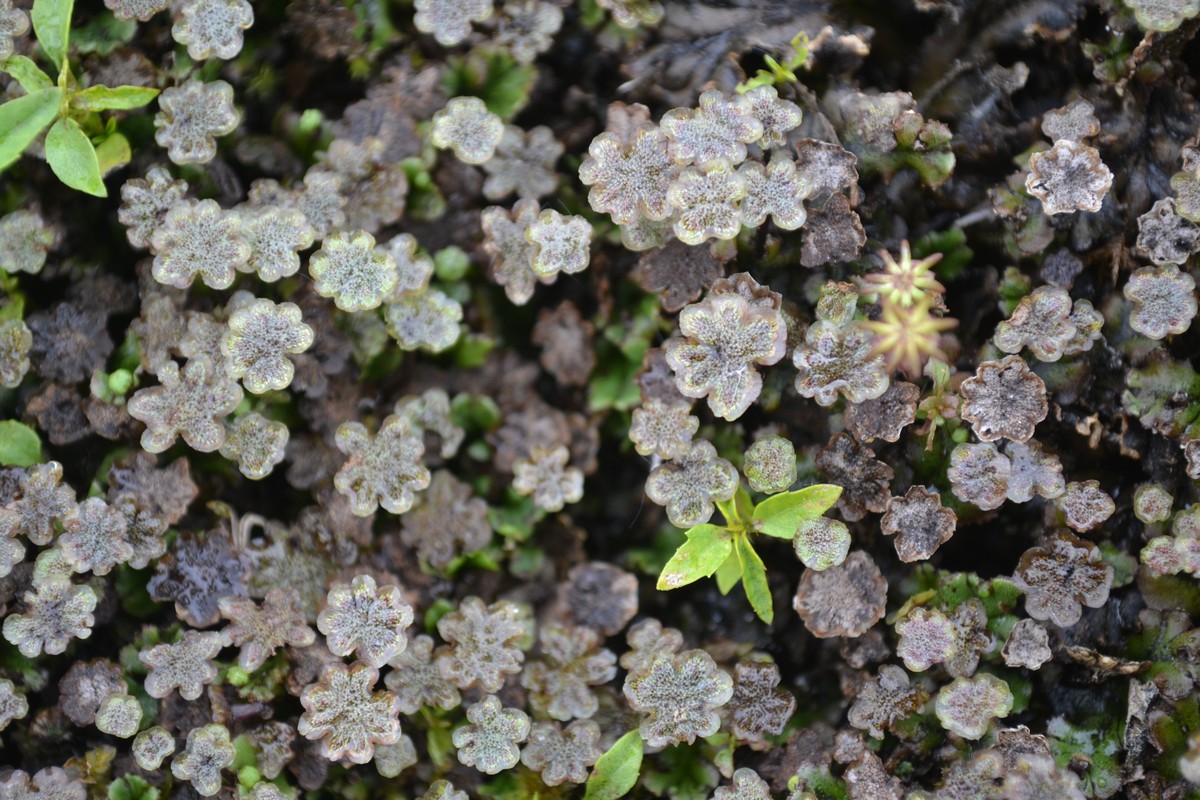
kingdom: Plantae
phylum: Marchantiophyta
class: Marchantiopsida
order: Marchantiales
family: Marchantiaceae
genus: Marchantia
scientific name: Marchantia polymorpha
